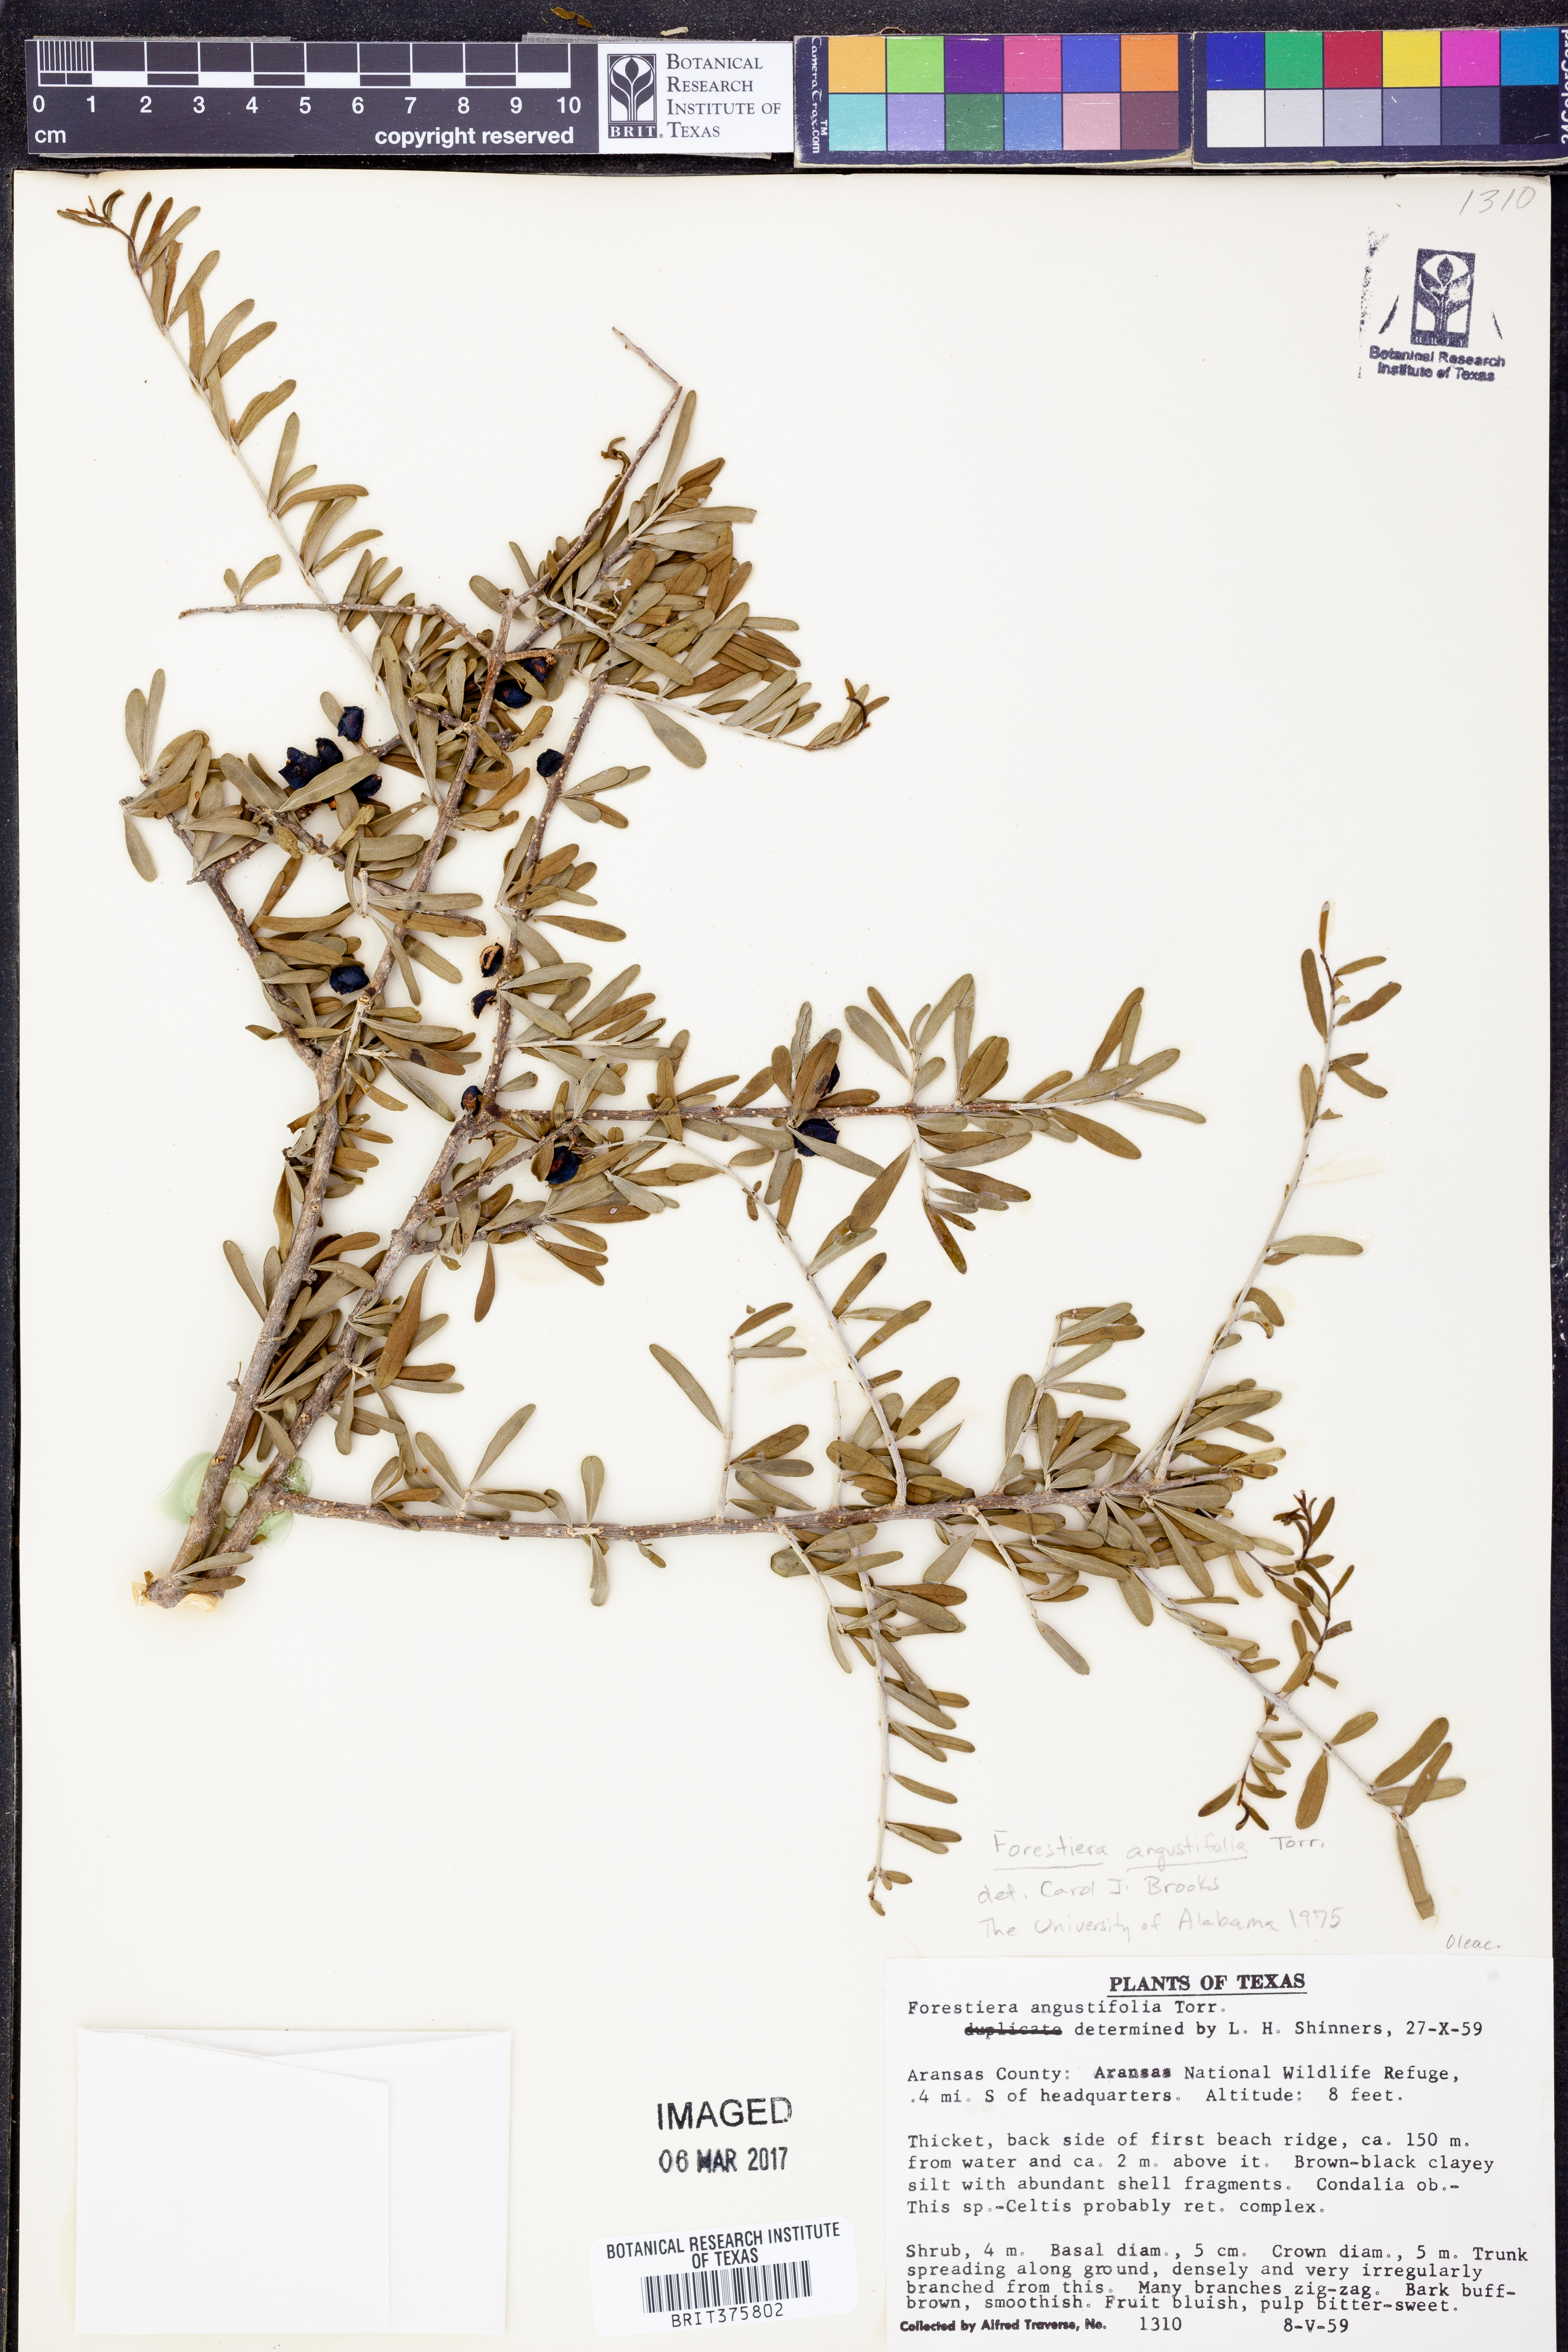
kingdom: Plantae
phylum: Tracheophyta
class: Magnoliopsida
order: Lamiales
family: Oleaceae
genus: Forestiera
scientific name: Forestiera angustifolia
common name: Elbowbush
